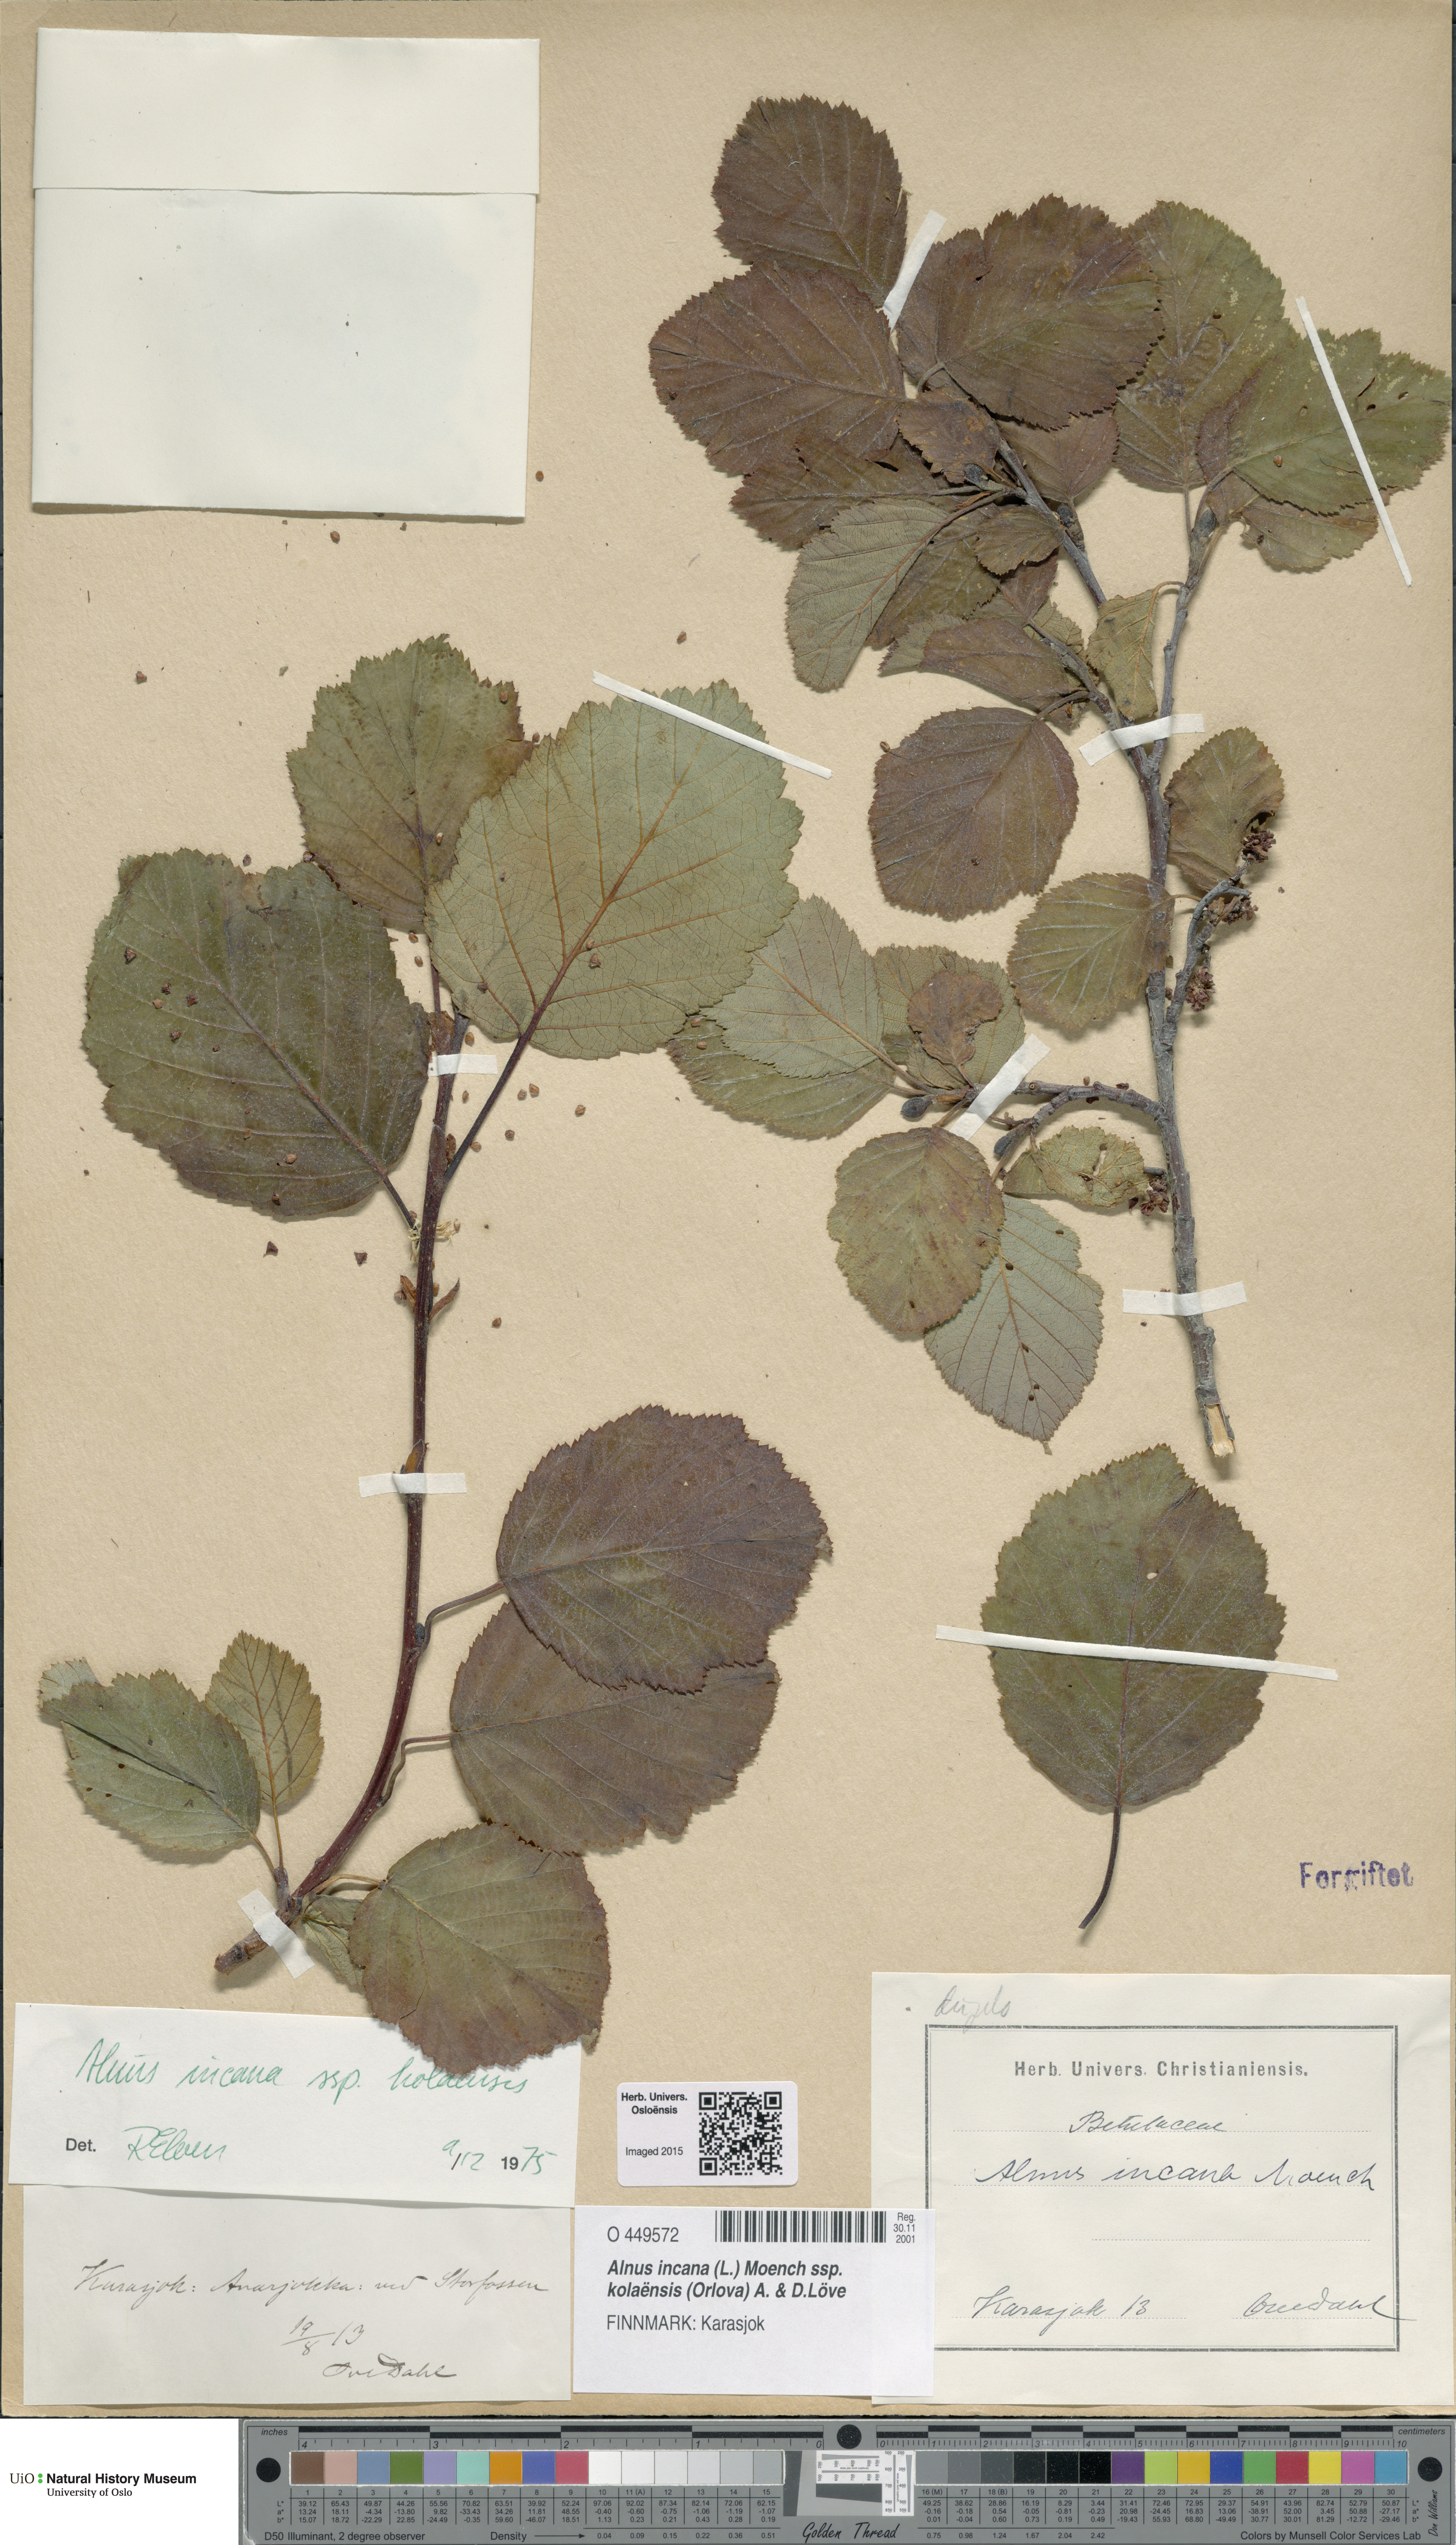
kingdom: Plantae
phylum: Tracheophyta
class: Magnoliopsida
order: Fagales
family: Betulaceae
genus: Alnus
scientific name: Alnus incana
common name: Grey alder
